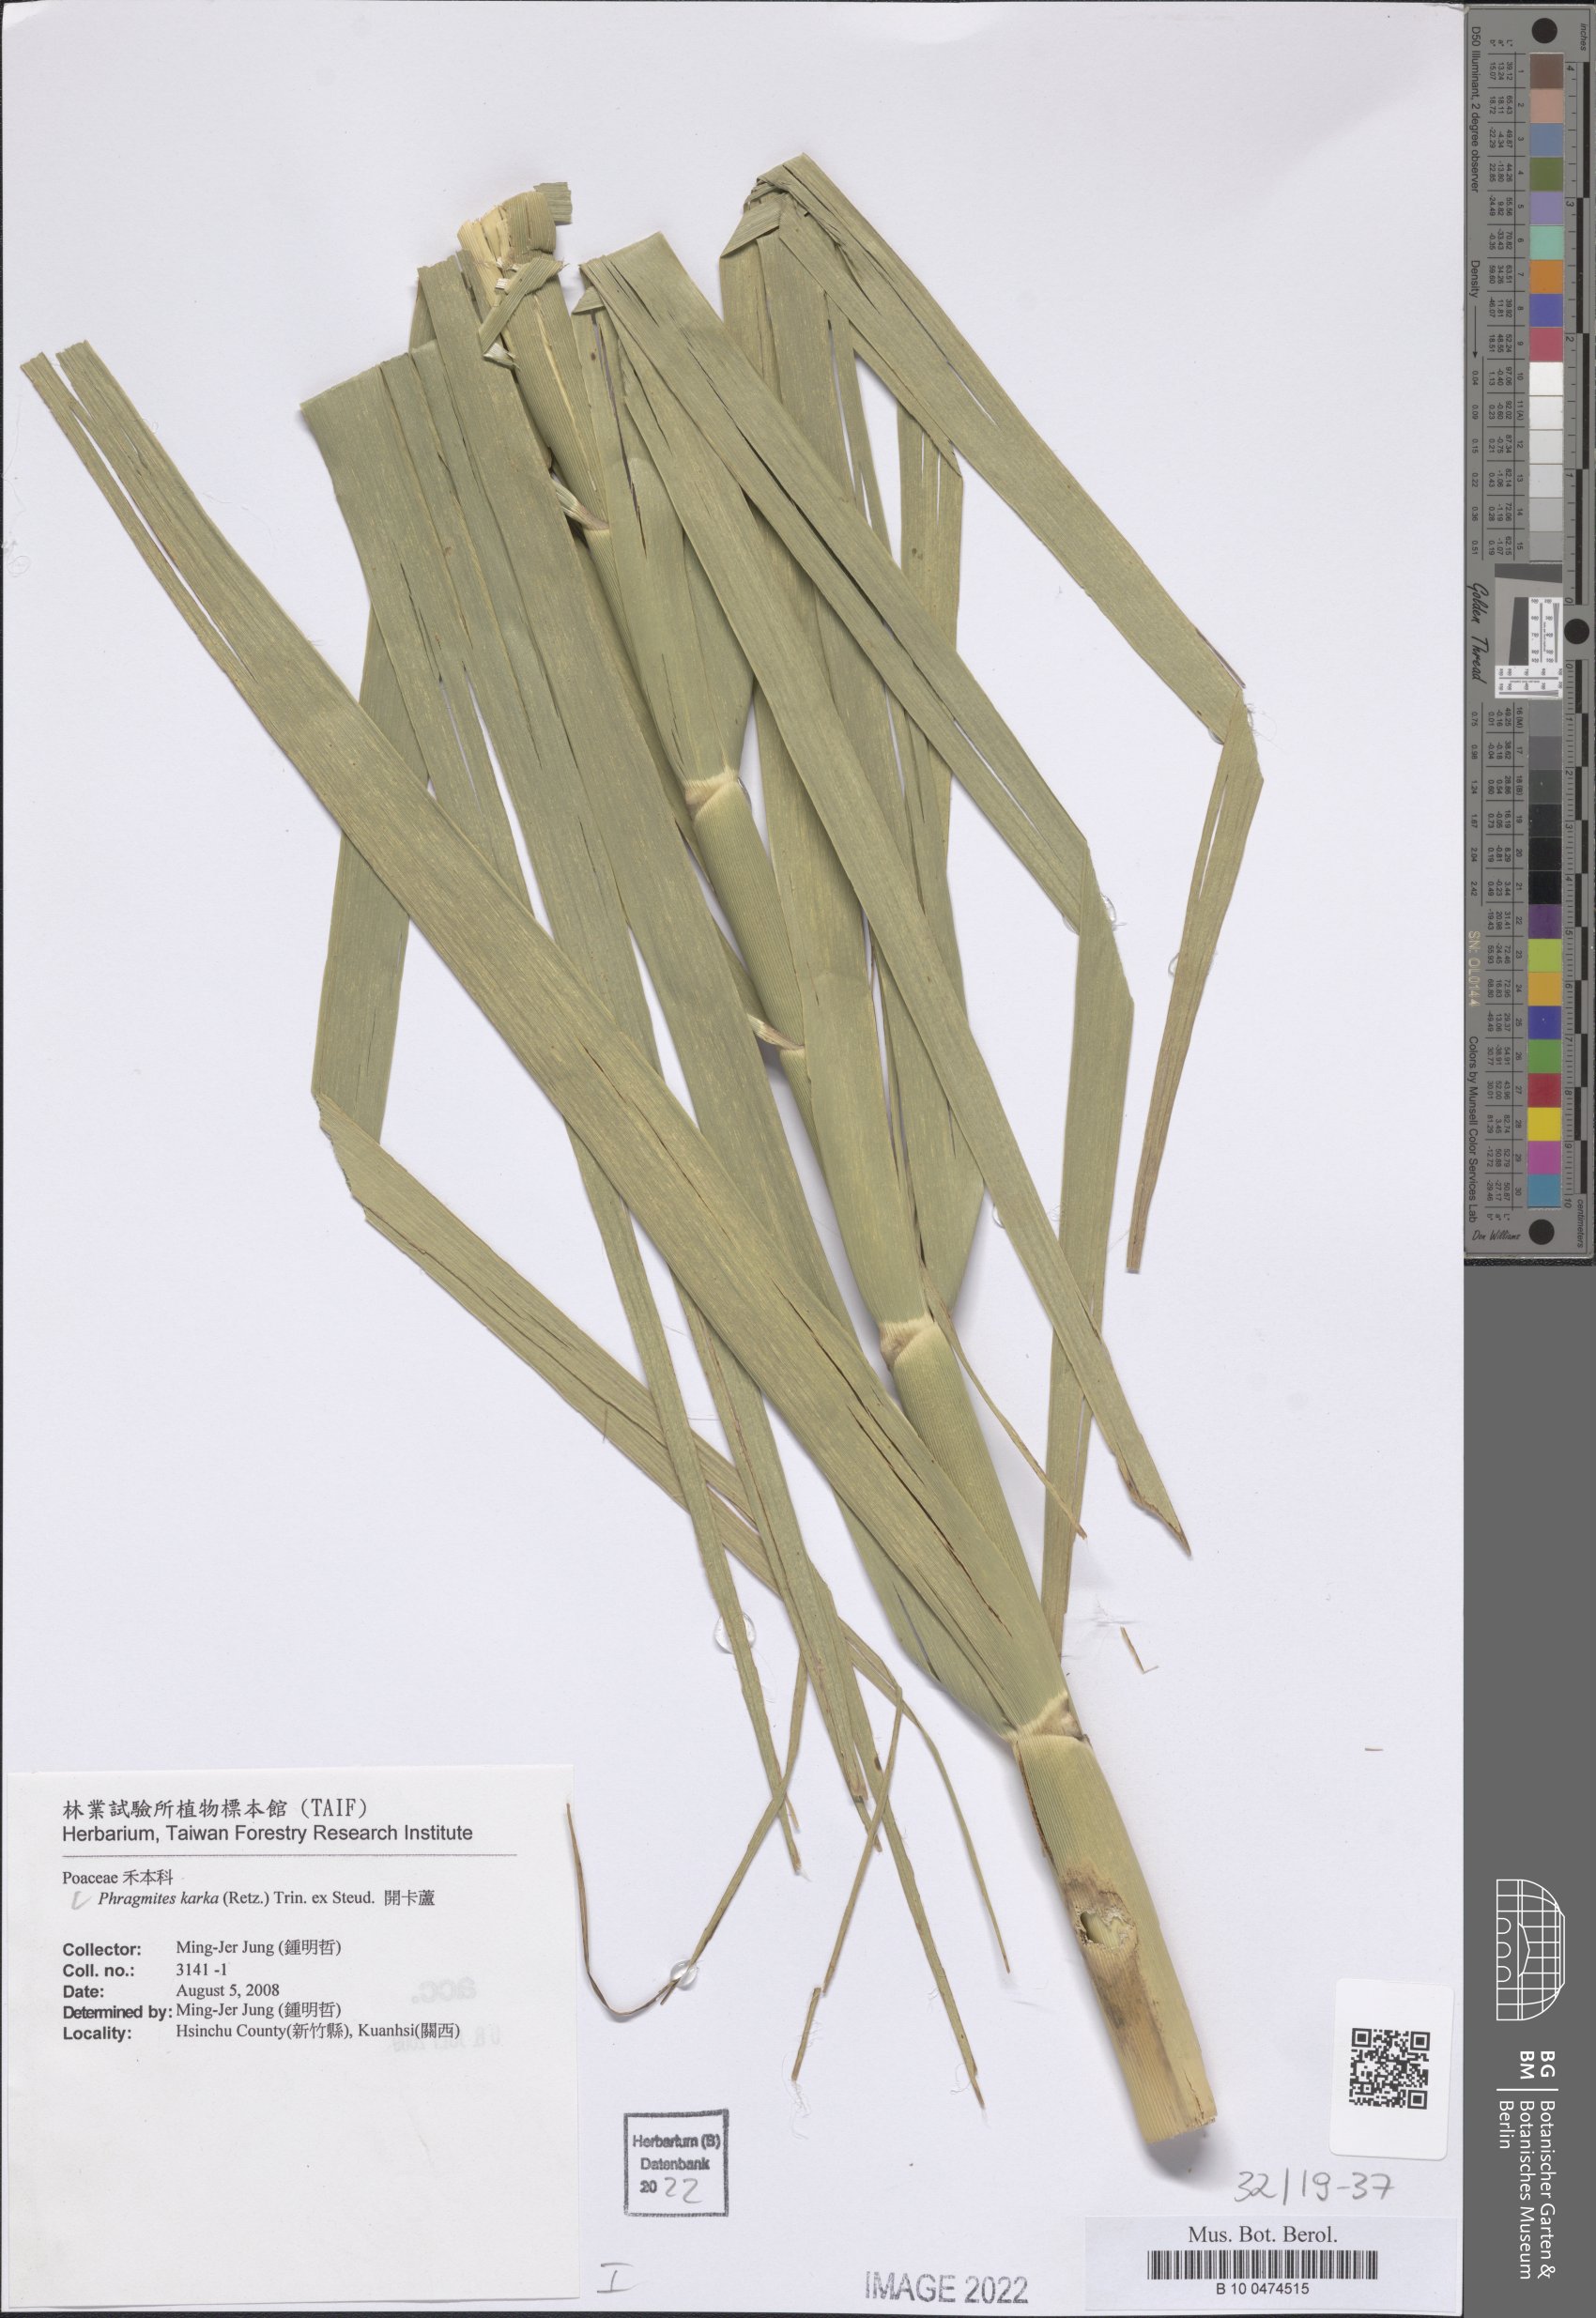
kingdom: Plantae
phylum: Tracheophyta
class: Liliopsida
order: Poales
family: Poaceae
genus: Phragmites
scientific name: Phragmites karka
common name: Tropical reed
